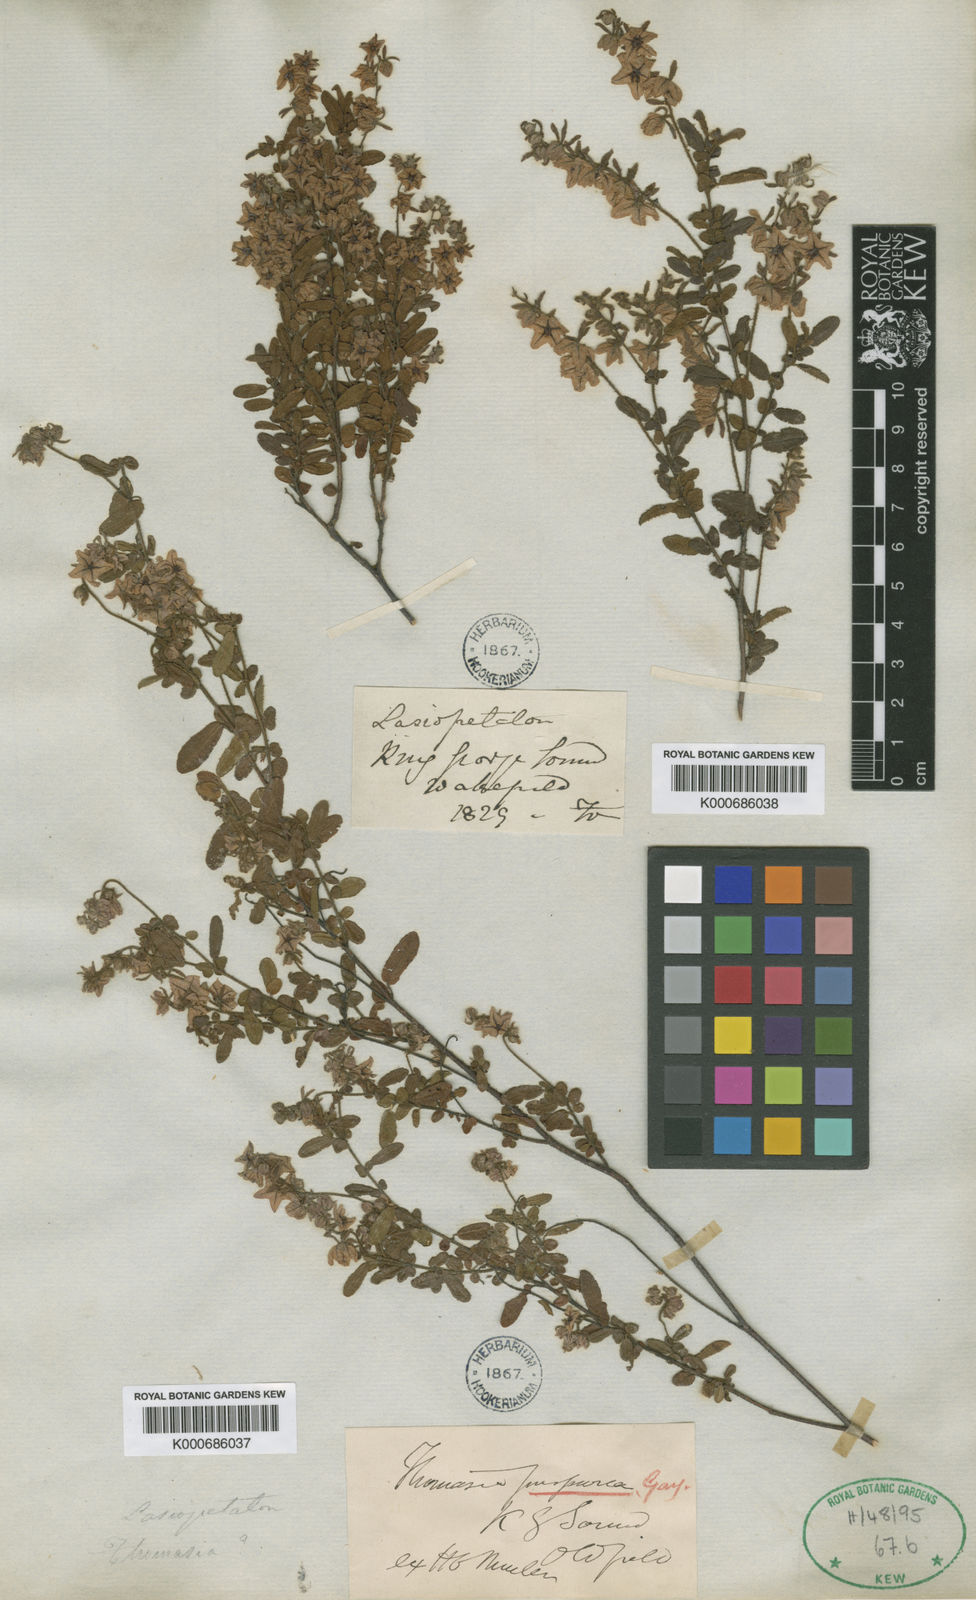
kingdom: Plantae
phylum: Tracheophyta
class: Magnoliopsida
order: Malvales
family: Malvaceae
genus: Thomasia
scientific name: Thomasia purpurea
